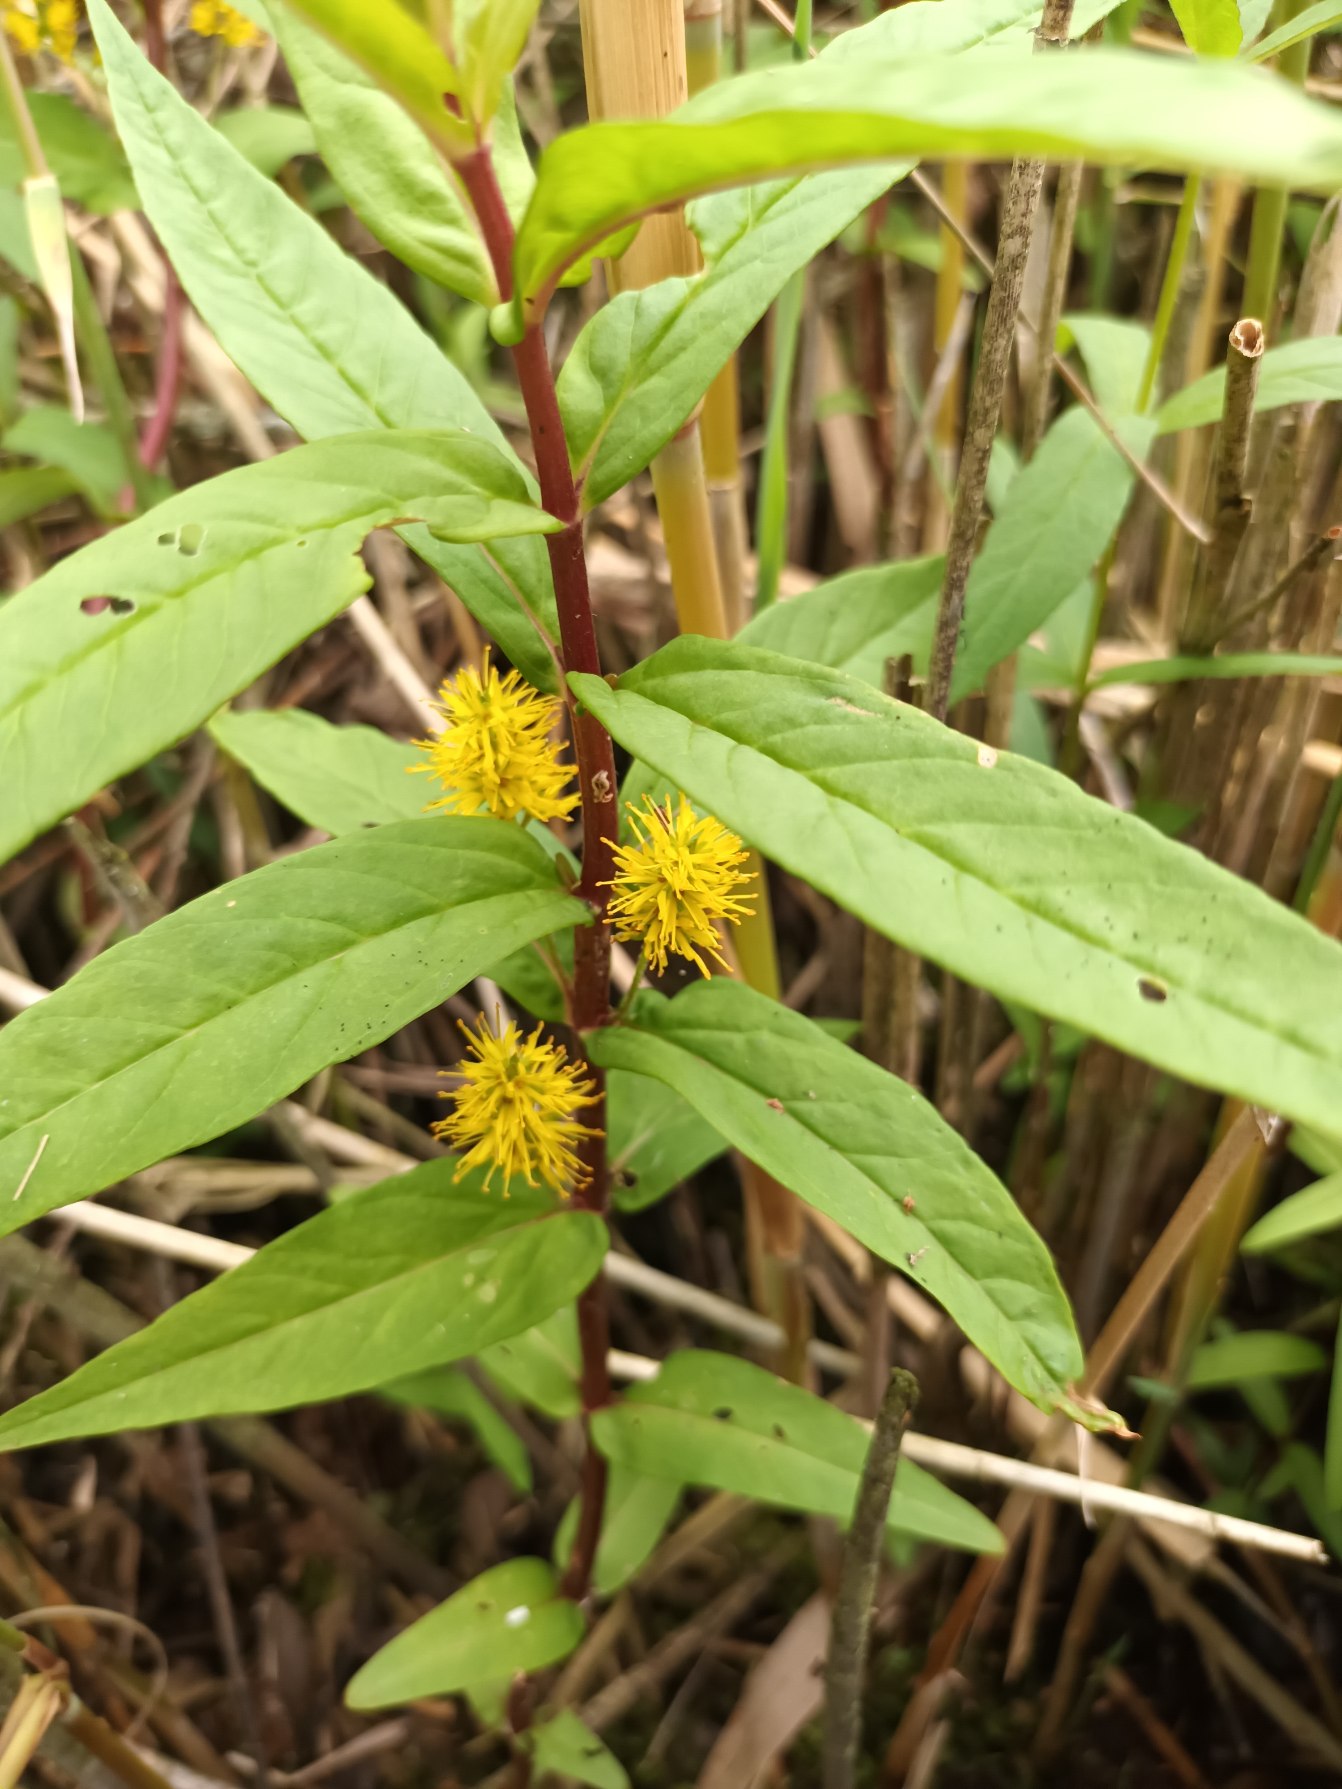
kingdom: Plantae
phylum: Tracheophyta
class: Magnoliopsida
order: Ericales
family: Primulaceae
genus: Lysimachia
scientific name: Lysimachia thyrsiflora
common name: Dusk-fredløs
